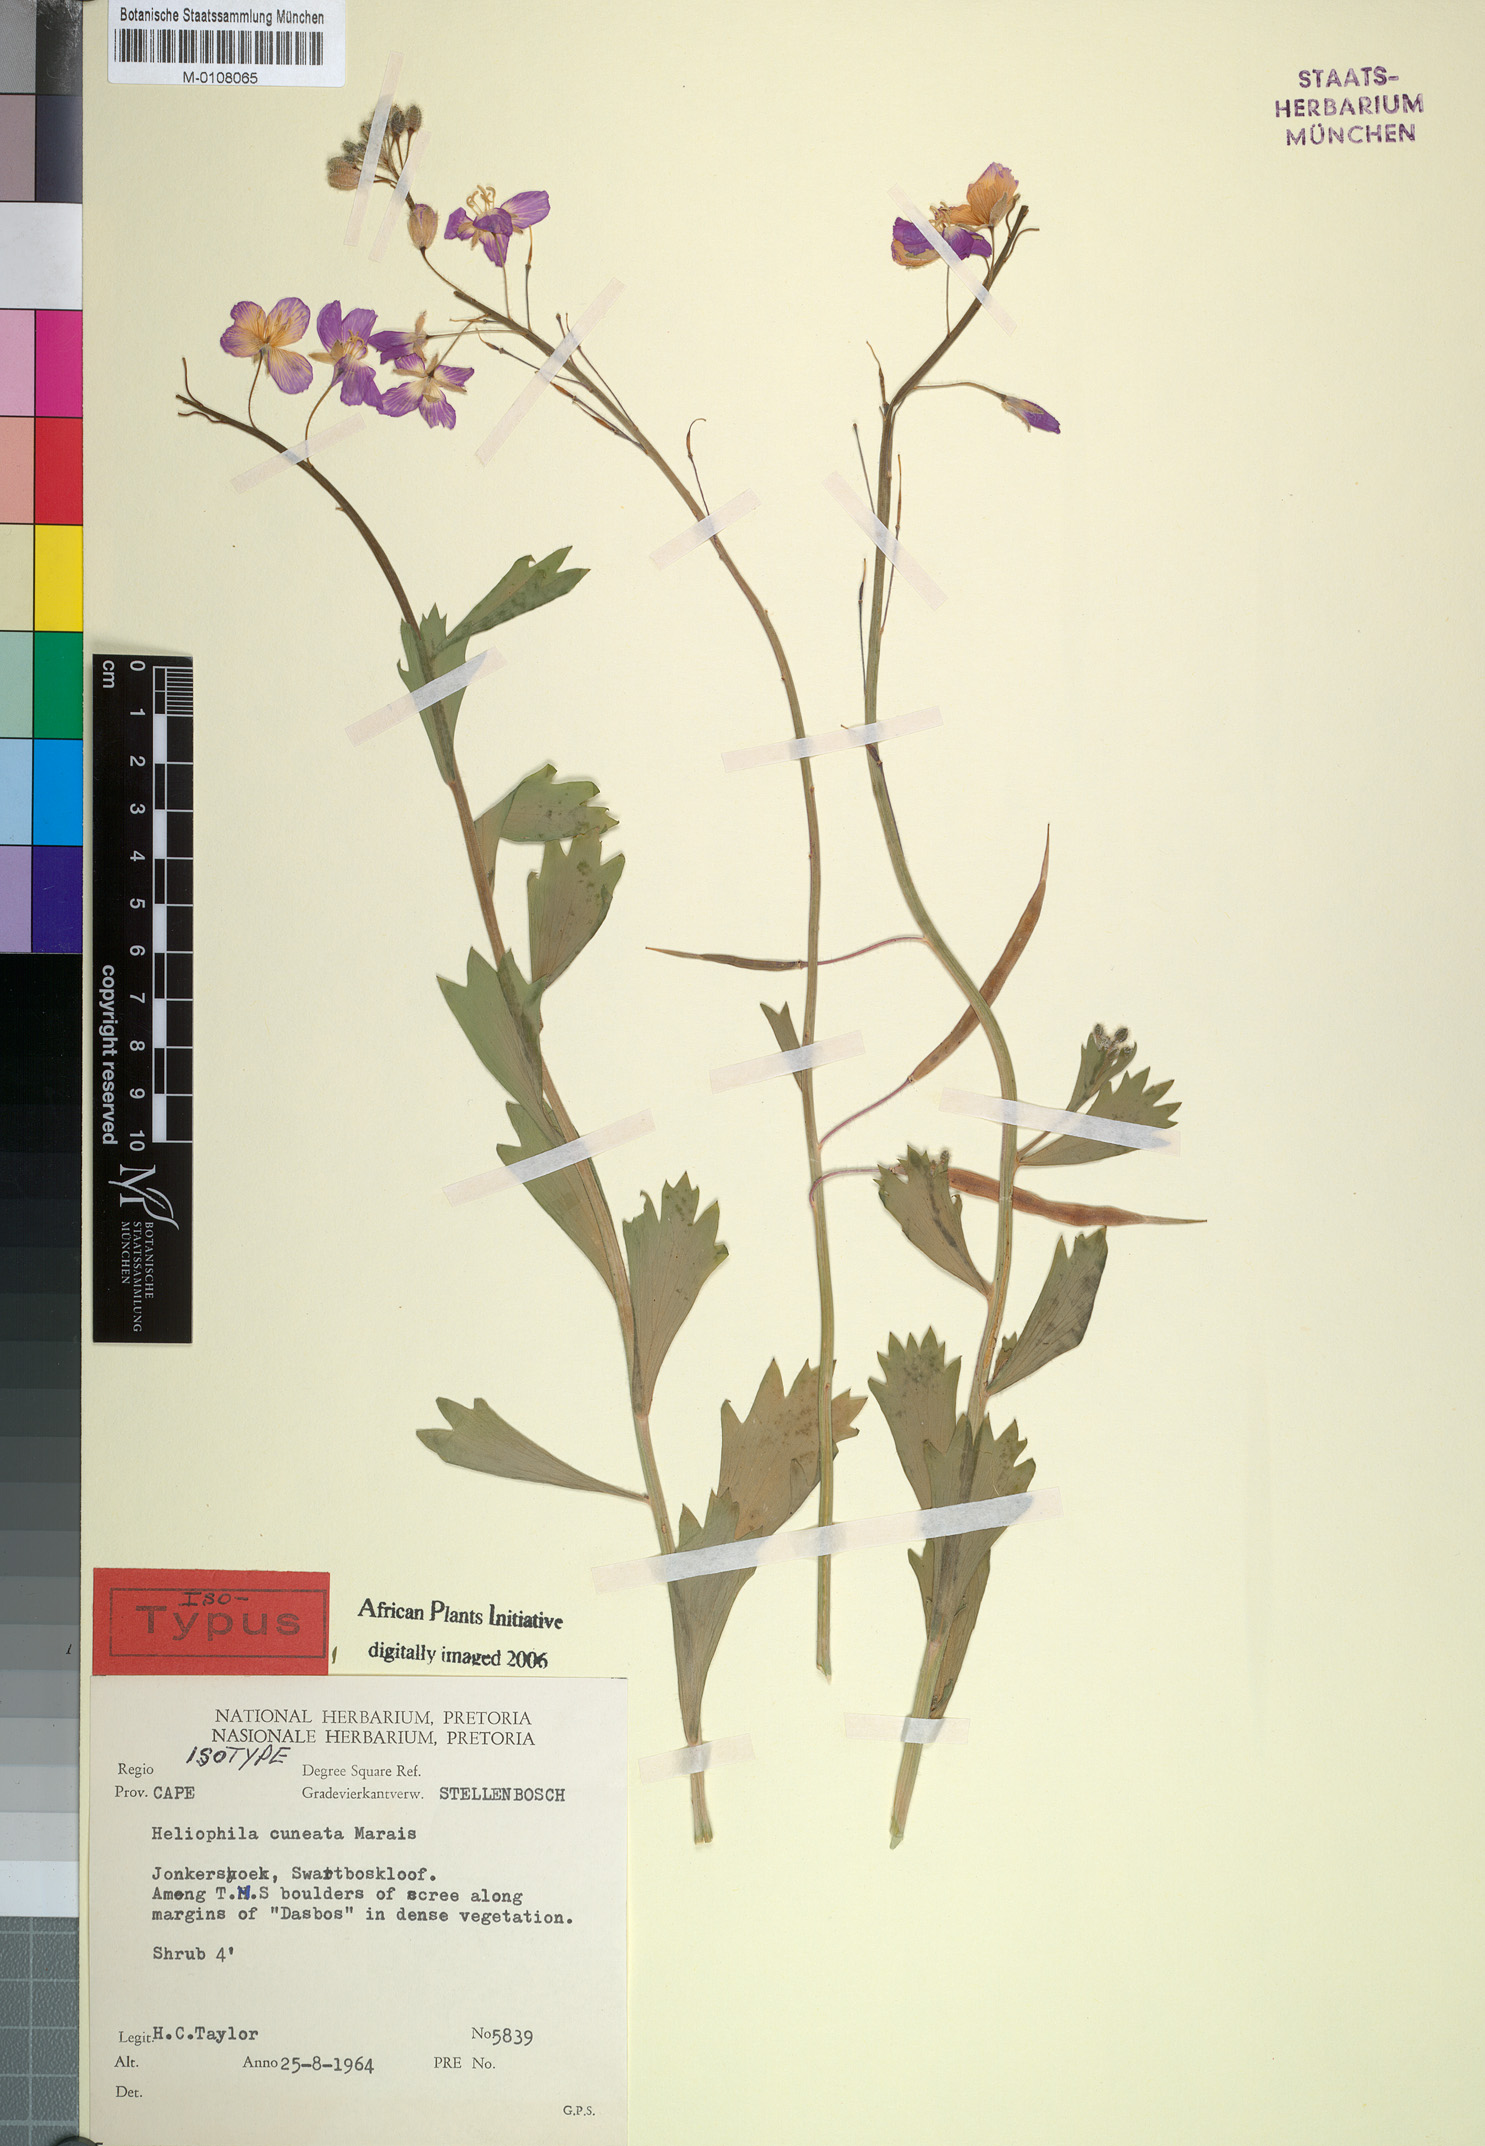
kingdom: Plantae
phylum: Tracheophyta
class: Magnoliopsida
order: Brassicales
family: Brassicaceae
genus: Heliophila
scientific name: Heliophila cuneata
